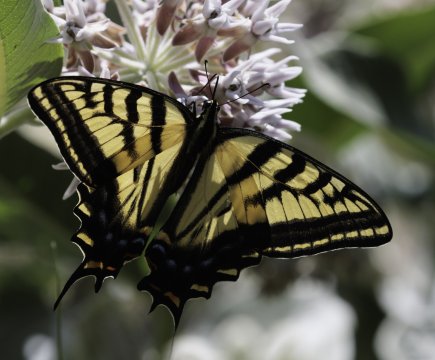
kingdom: Animalia
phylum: Arthropoda
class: Insecta
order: Lepidoptera
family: Papilionidae
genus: Papilio
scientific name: Papilio multicaudata
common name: Two-tailed Swallowtail
